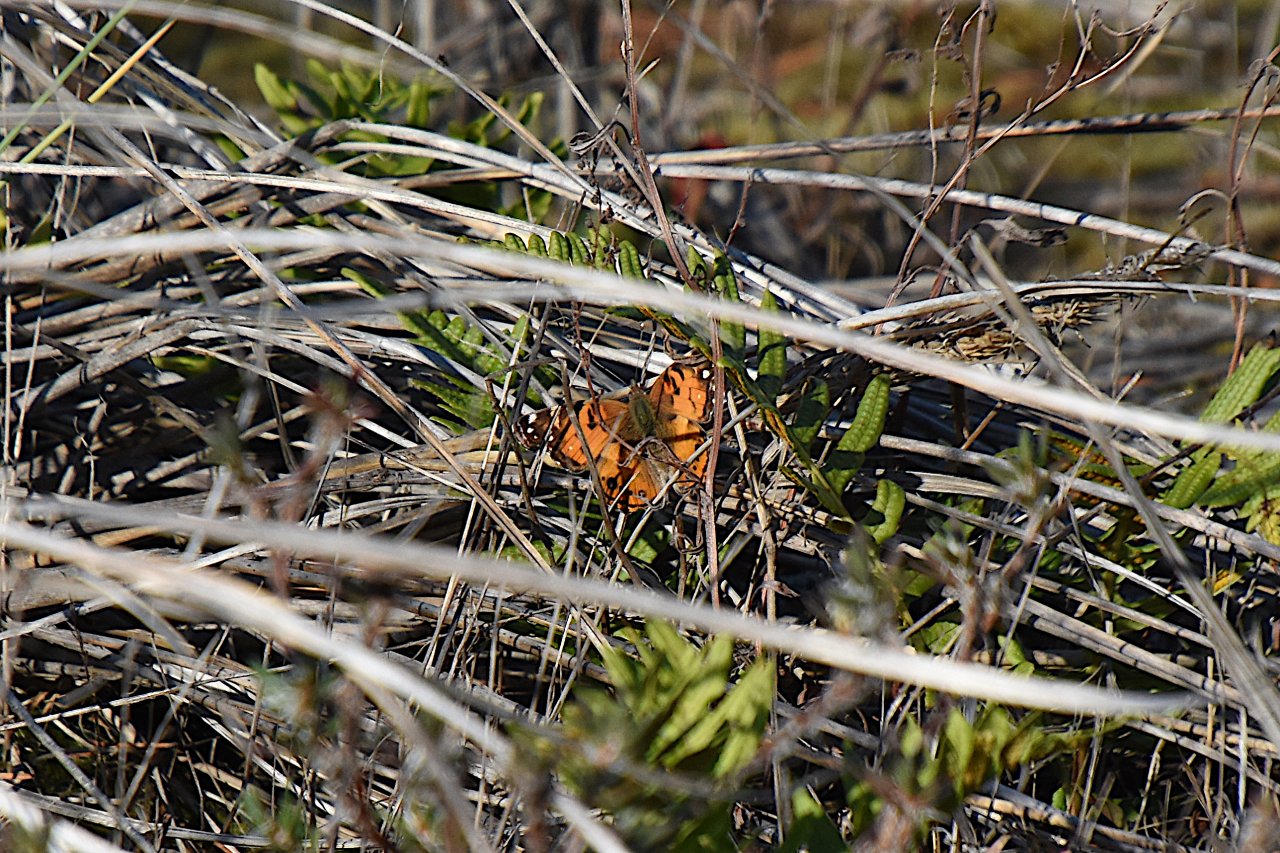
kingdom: Animalia
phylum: Arthropoda
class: Insecta
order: Lepidoptera
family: Nymphalidae
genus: Vanessa
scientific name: Vanessa virginiensis
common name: American Lady
